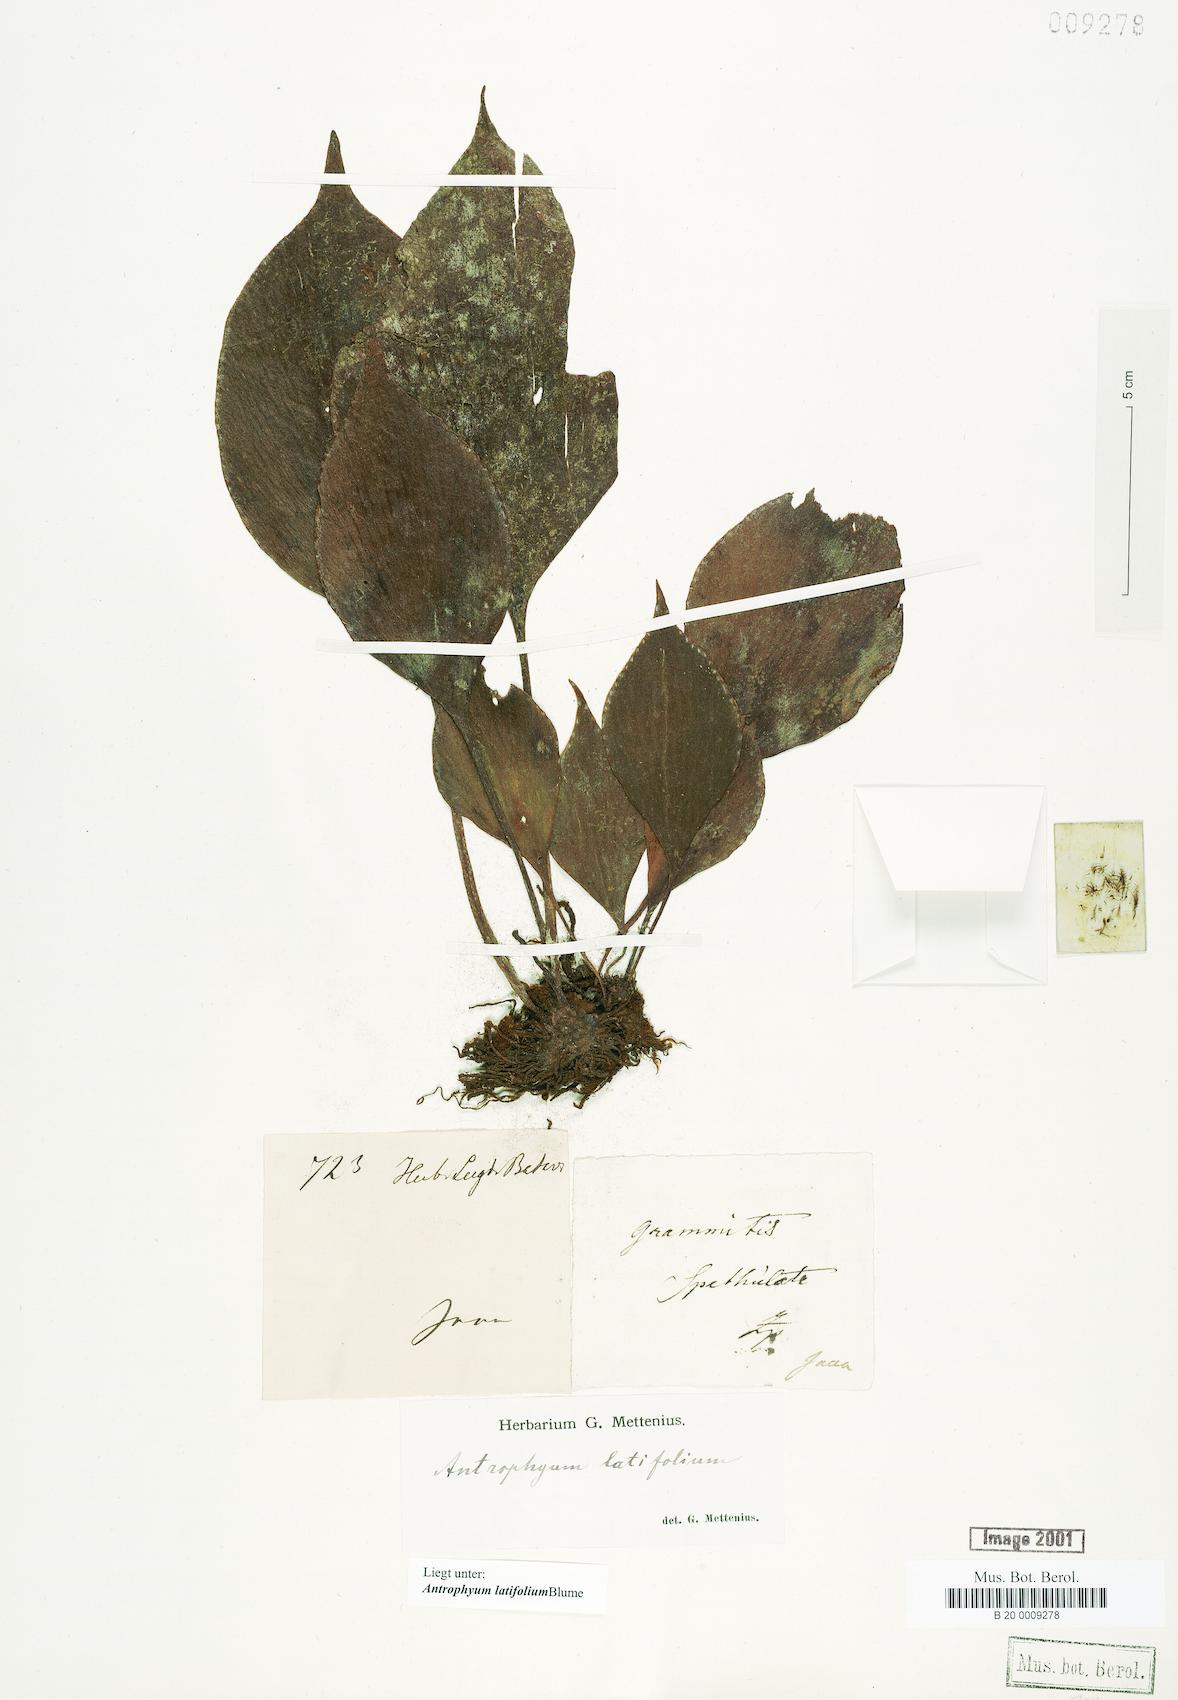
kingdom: Plantae
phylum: Tracheophyta
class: Polypodiopsida
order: Polypodiales
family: Pteridaceae
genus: Antrophyum
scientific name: Antrophyum latifolium
